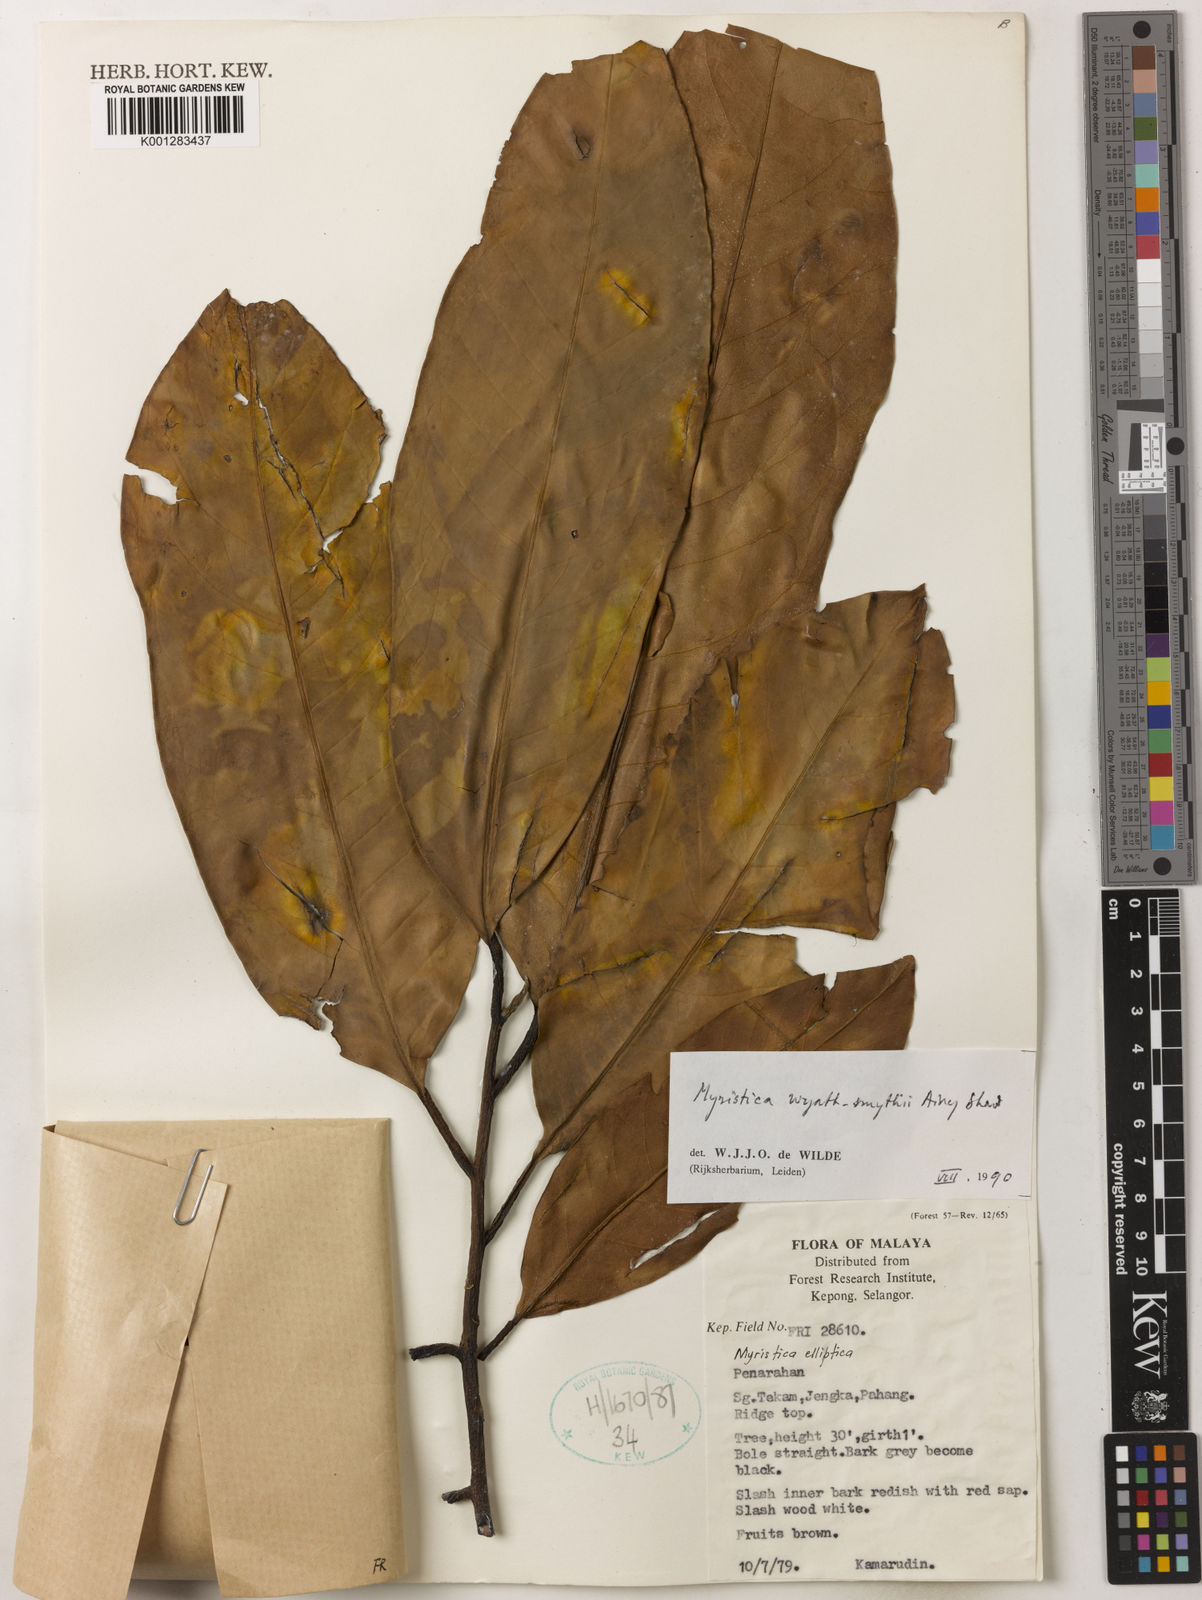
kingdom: Plantae
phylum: Tracheophyta
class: Magnoliopsida
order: Magnoliales
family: Myristicaceae
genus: Myristica
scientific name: Myristica wyatt-smithii
